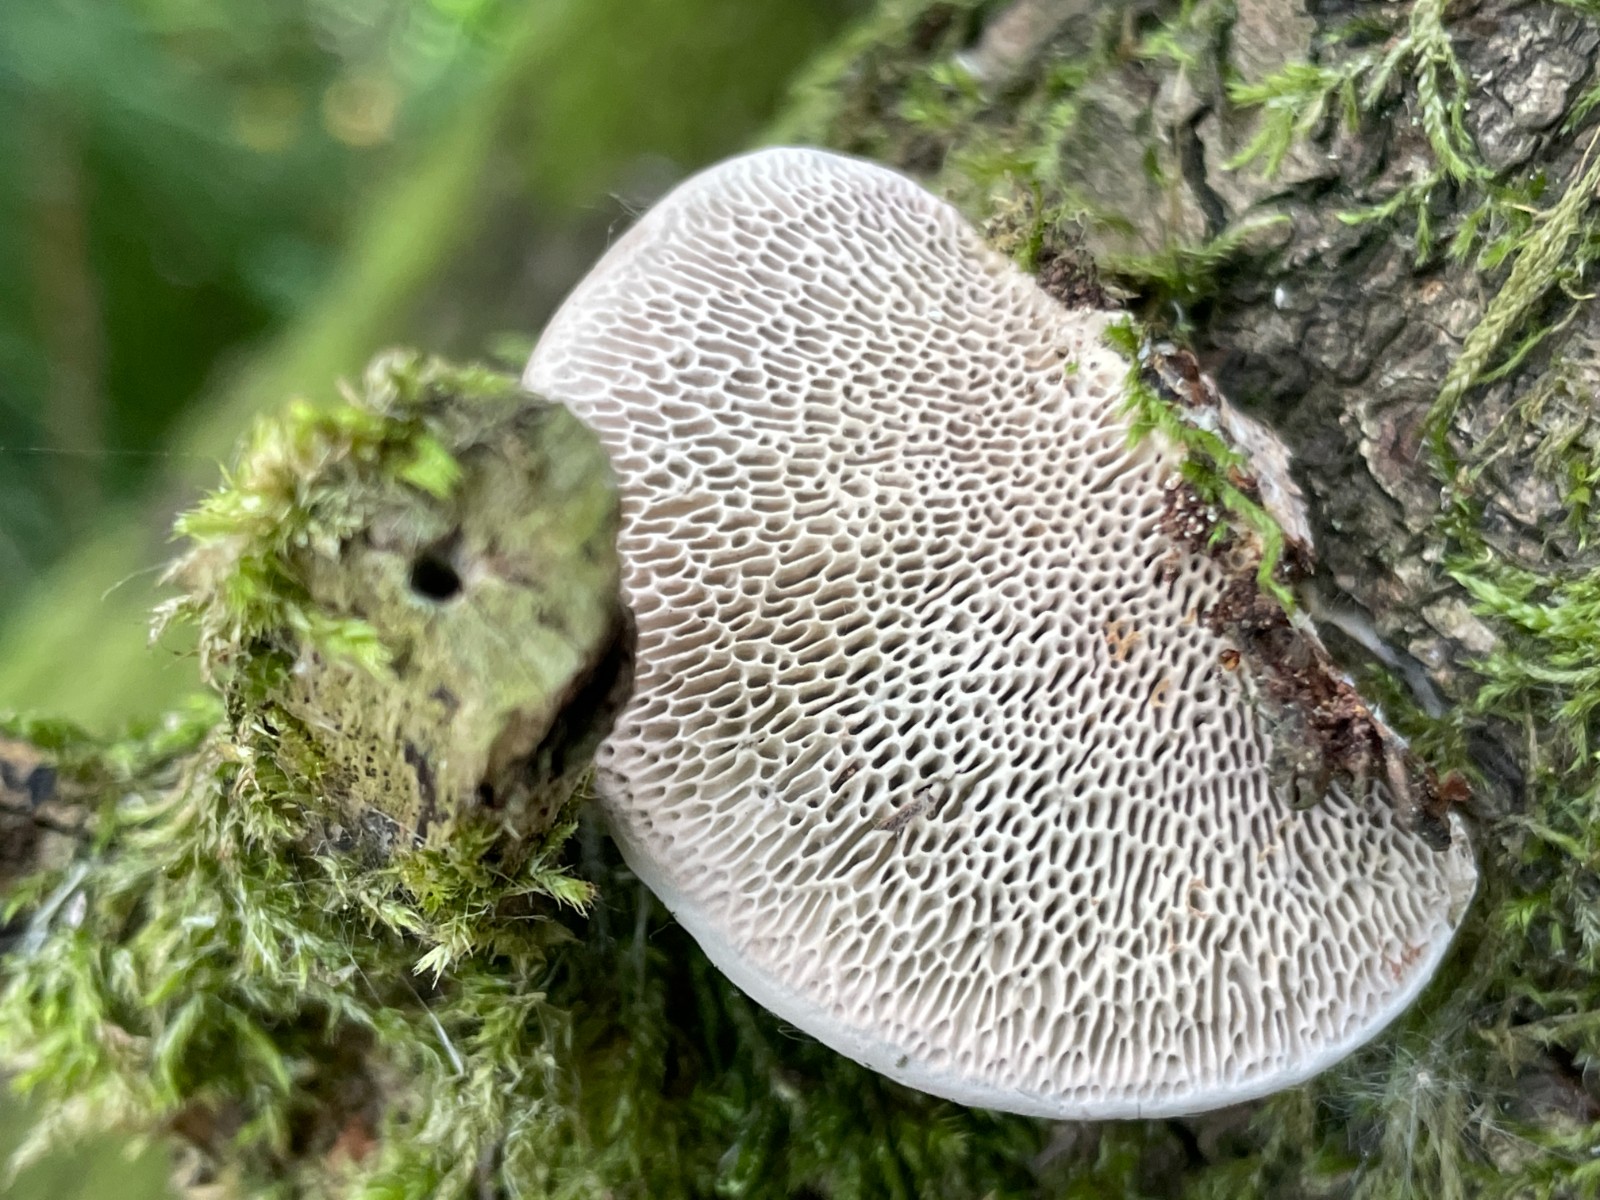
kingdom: Fungi
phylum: Basidiomycota
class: Agaricomycetes
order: Polyporales
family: Polyporaceae
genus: Daedaleopsis
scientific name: Daedaleopsis confragosa
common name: rødmende læderporesvamp
